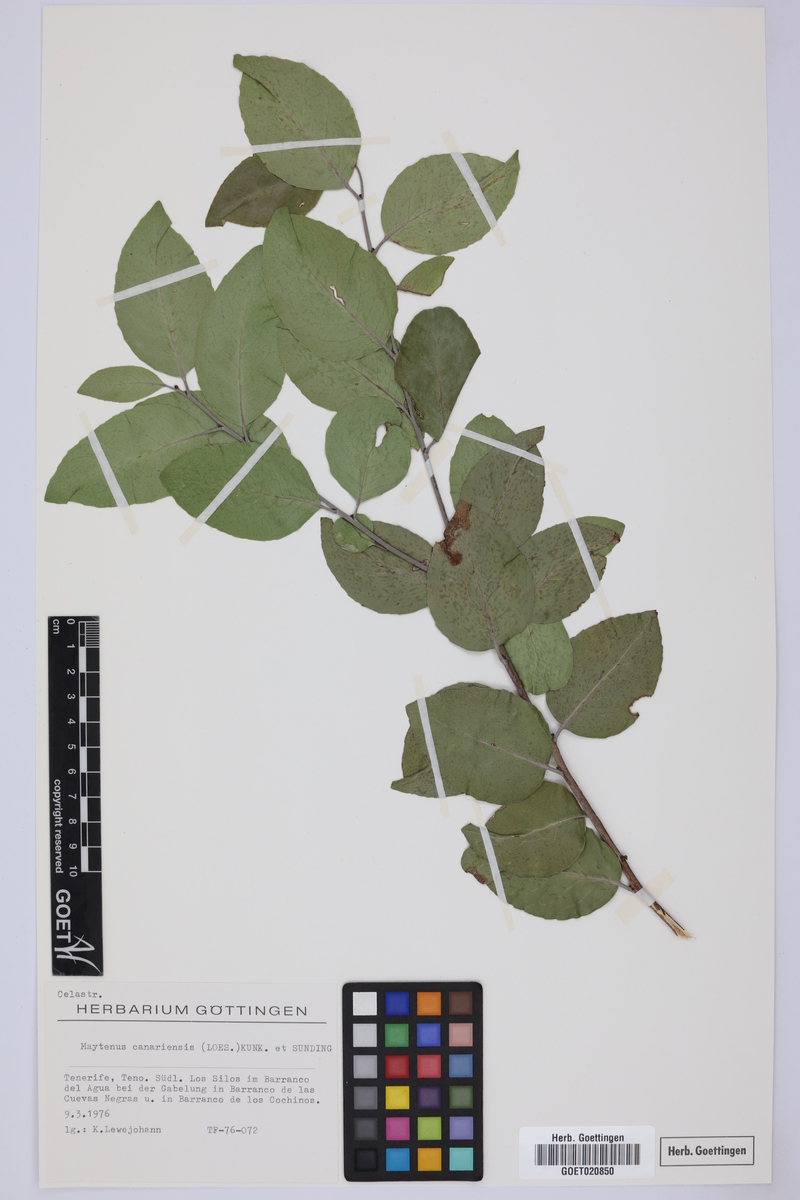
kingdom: Plantae
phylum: Tracheophyta
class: Magnoliopsida
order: Celastrales
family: Celastraceae
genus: Gymnosporia
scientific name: Gymnosporia cassinoides
